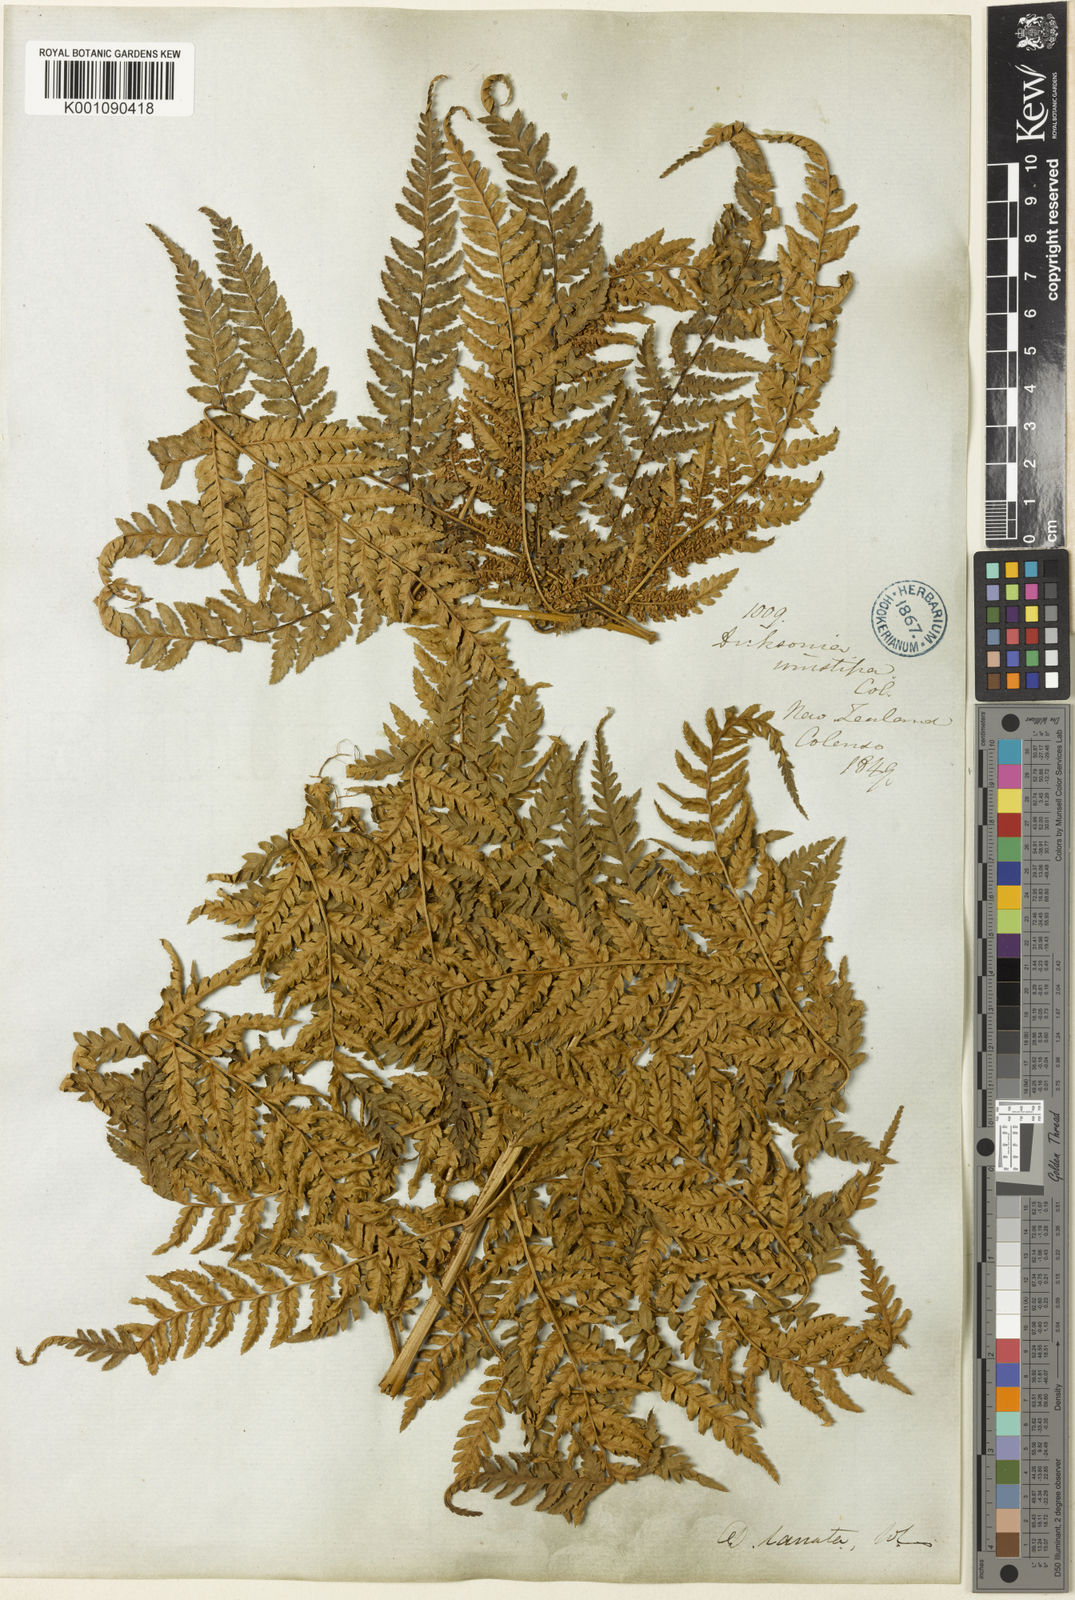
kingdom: Plantae
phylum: Tracheophyta
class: Polypodiopsida
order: Cyatheales
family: Dicksoniaceae
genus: Dicksonia
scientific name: Dicksonia lanata
